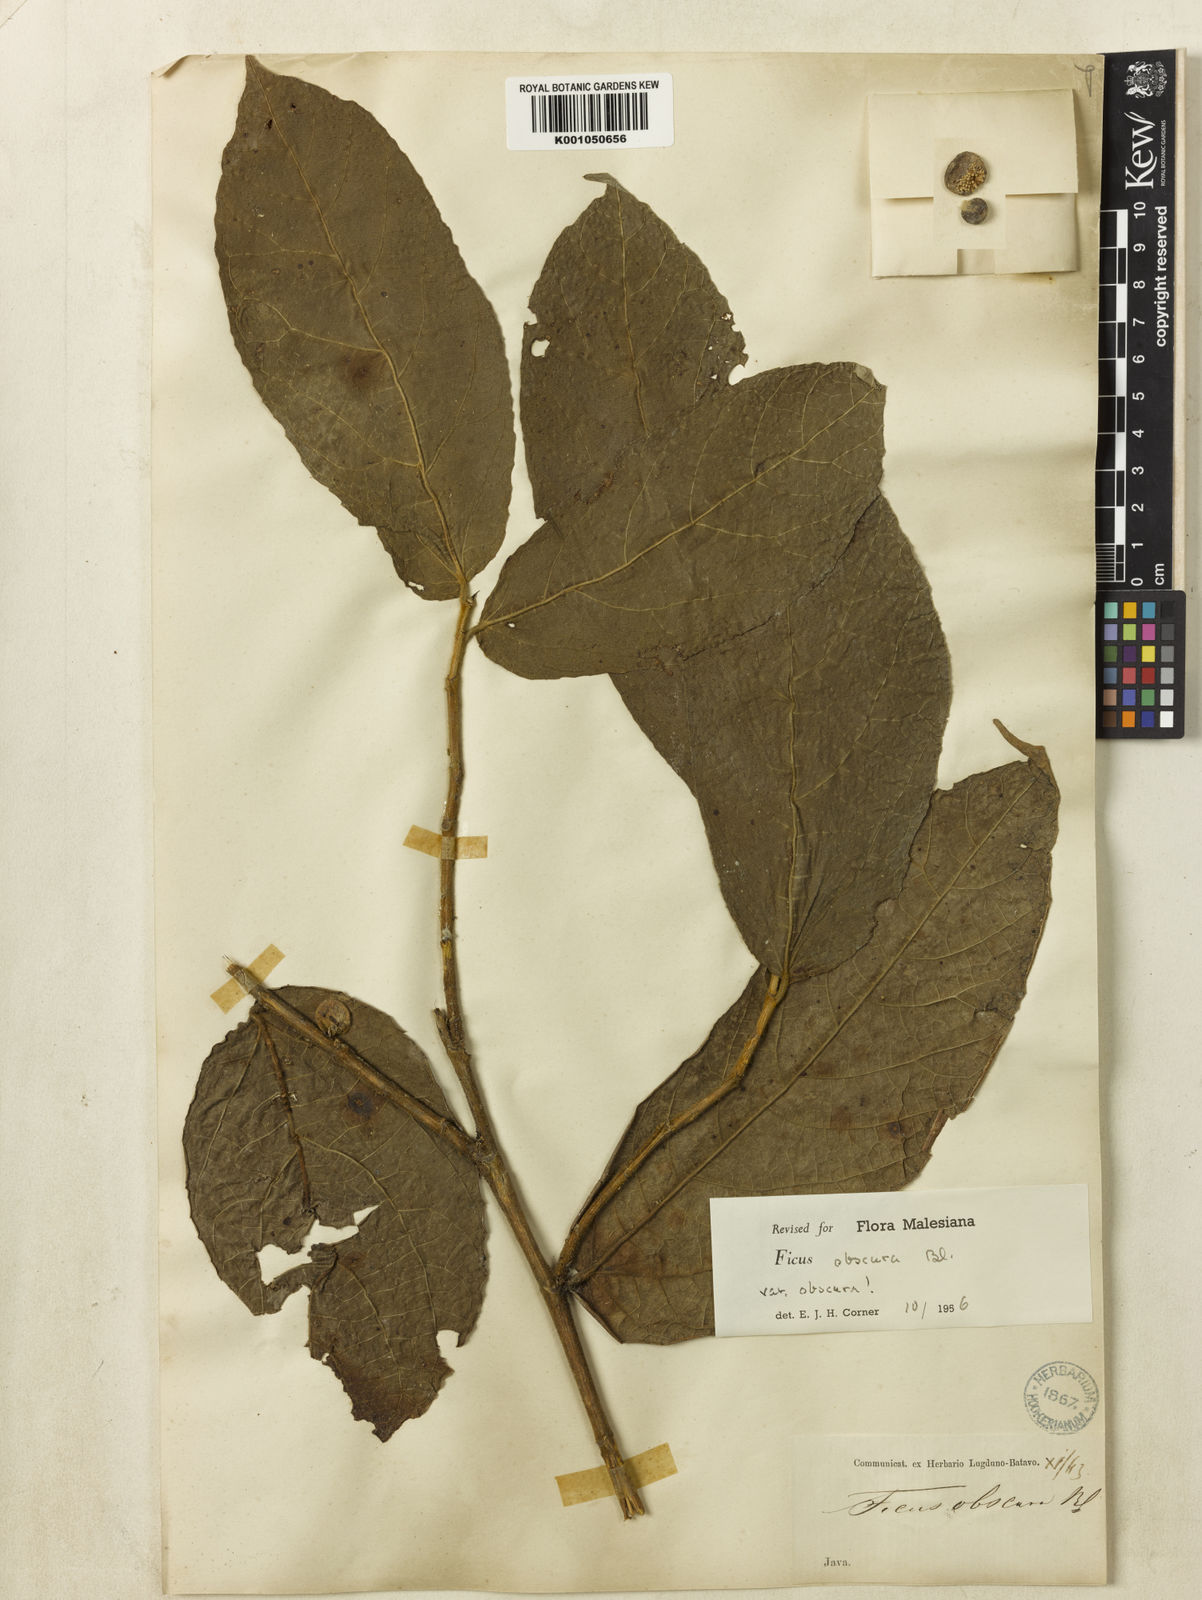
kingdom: Plantae
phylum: Tracheophyta
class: Magnoliopsida
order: Rosales
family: Moraceae
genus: Ficus
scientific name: Ficus obscura
